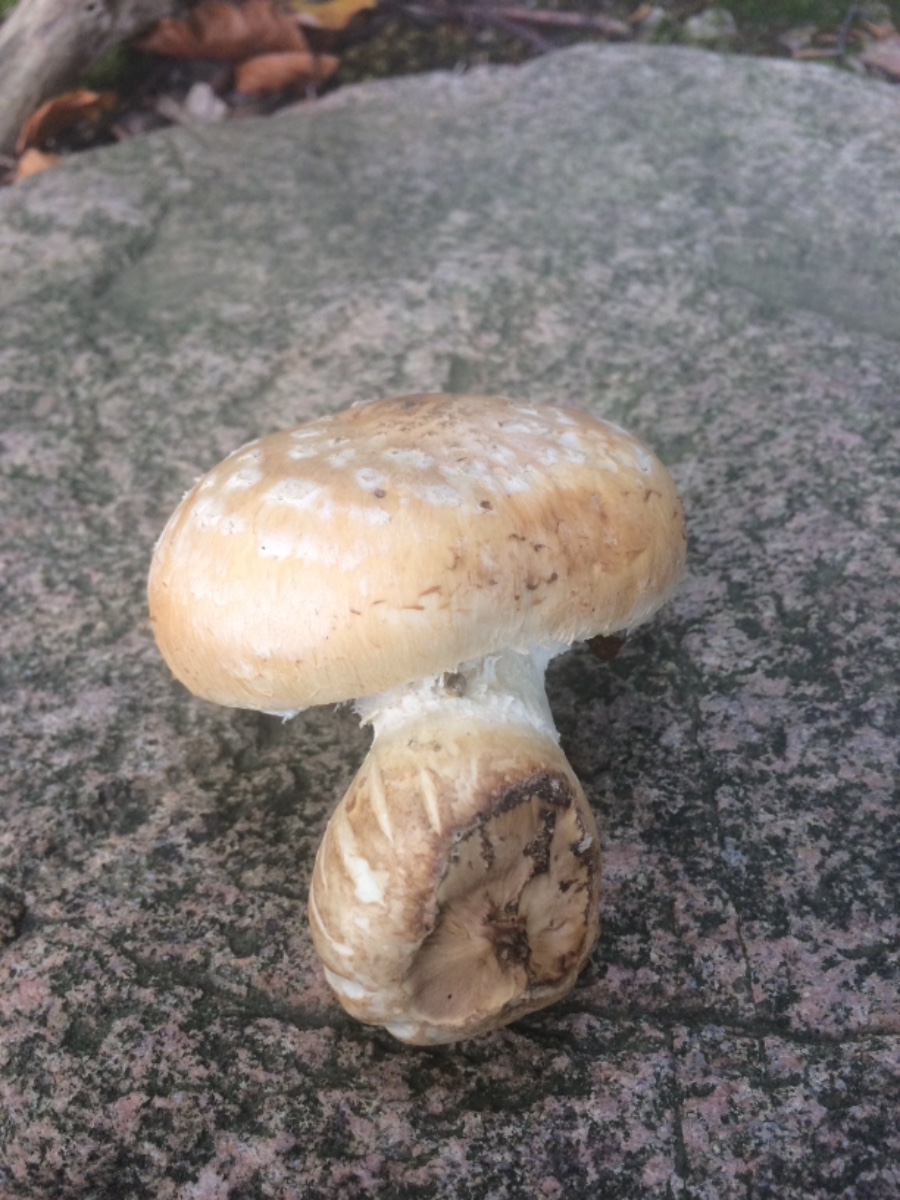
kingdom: Fungi
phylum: Basidiomycota
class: Agaricomycetes
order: Agaricales
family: Strophariaceae
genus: Pholiota
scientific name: Pholiota heteroclita
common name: duftende kæmpeskælhat
